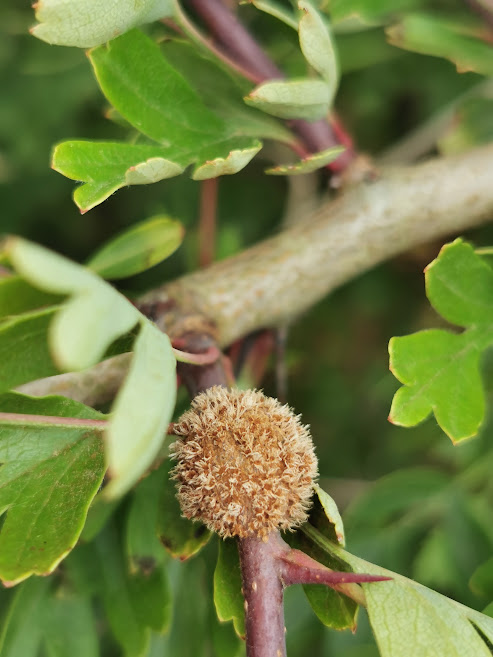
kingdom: Fungi
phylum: Basidiomycota
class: Pucciniomycetes
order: Pucciniales
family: Gymnosporangiaceae
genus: Gymnosporangium
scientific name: Gymnosporangium
